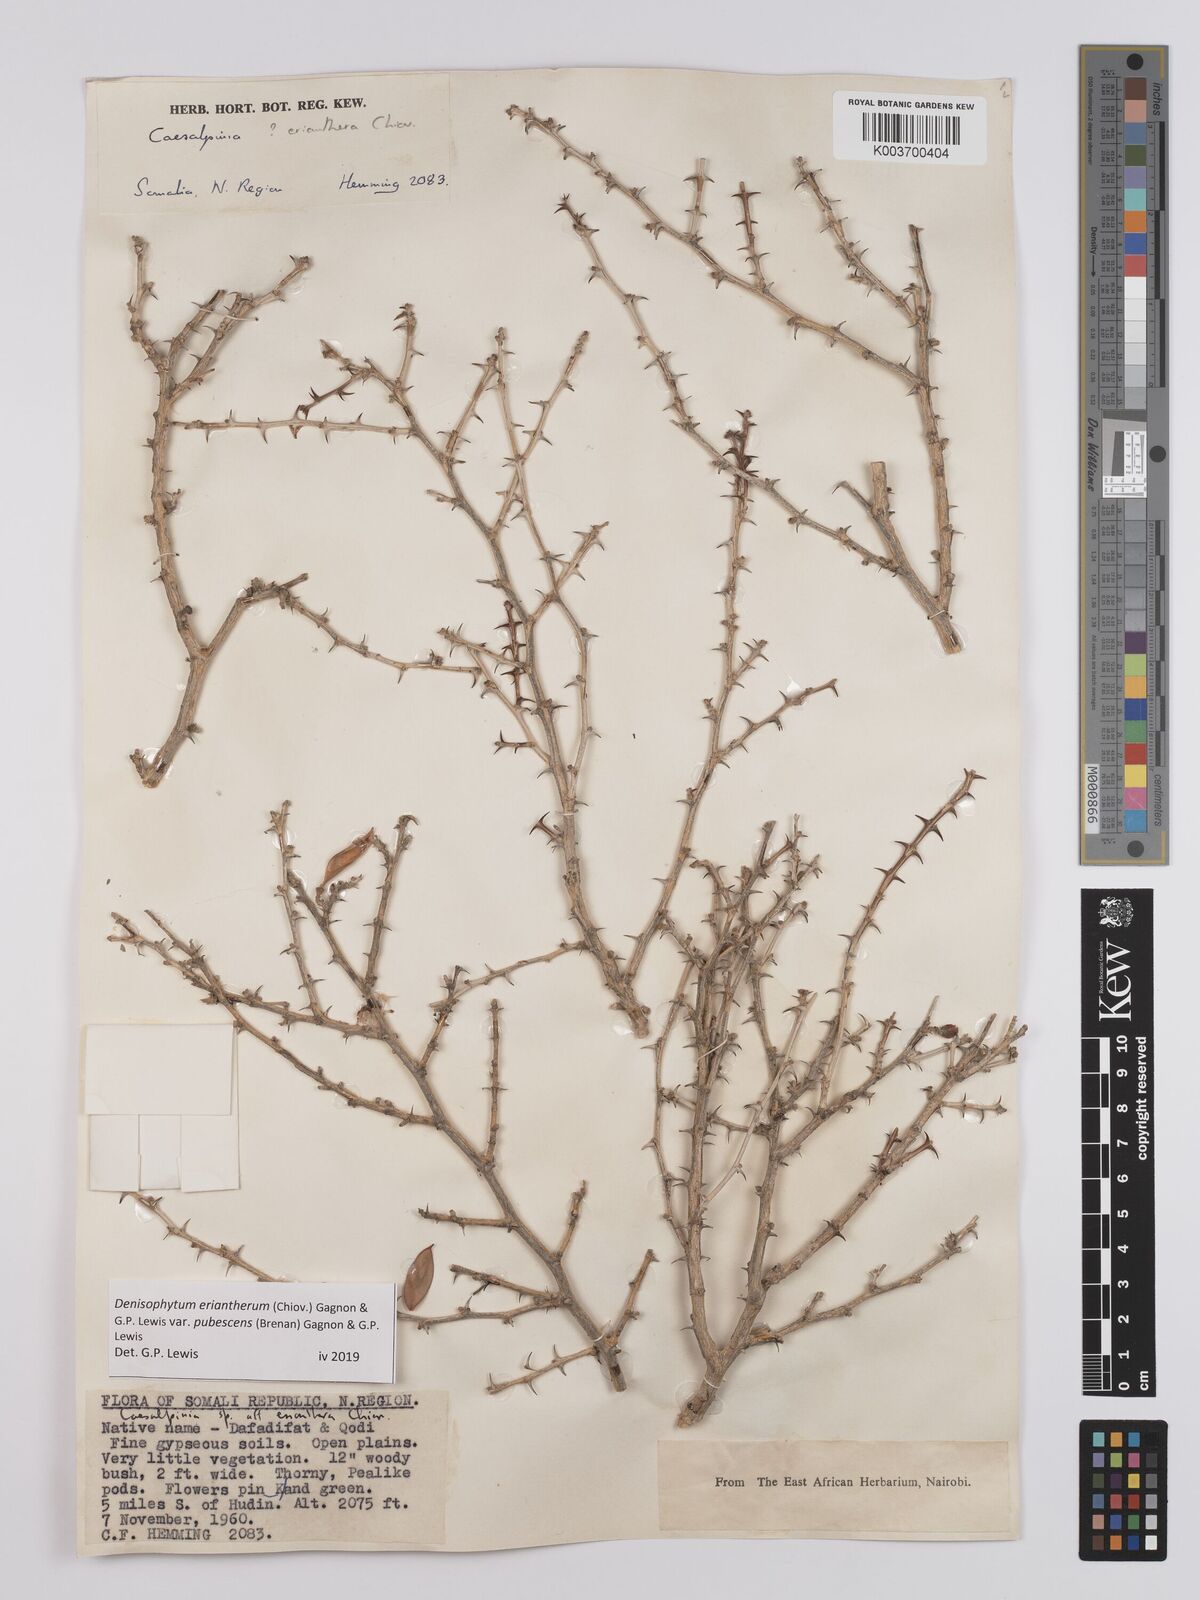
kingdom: Plantae
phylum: Tracheophyta
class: Magnoliopsida
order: Fabales
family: Fabaceae
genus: Denisophytum
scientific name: Denisophytum eriantherum
